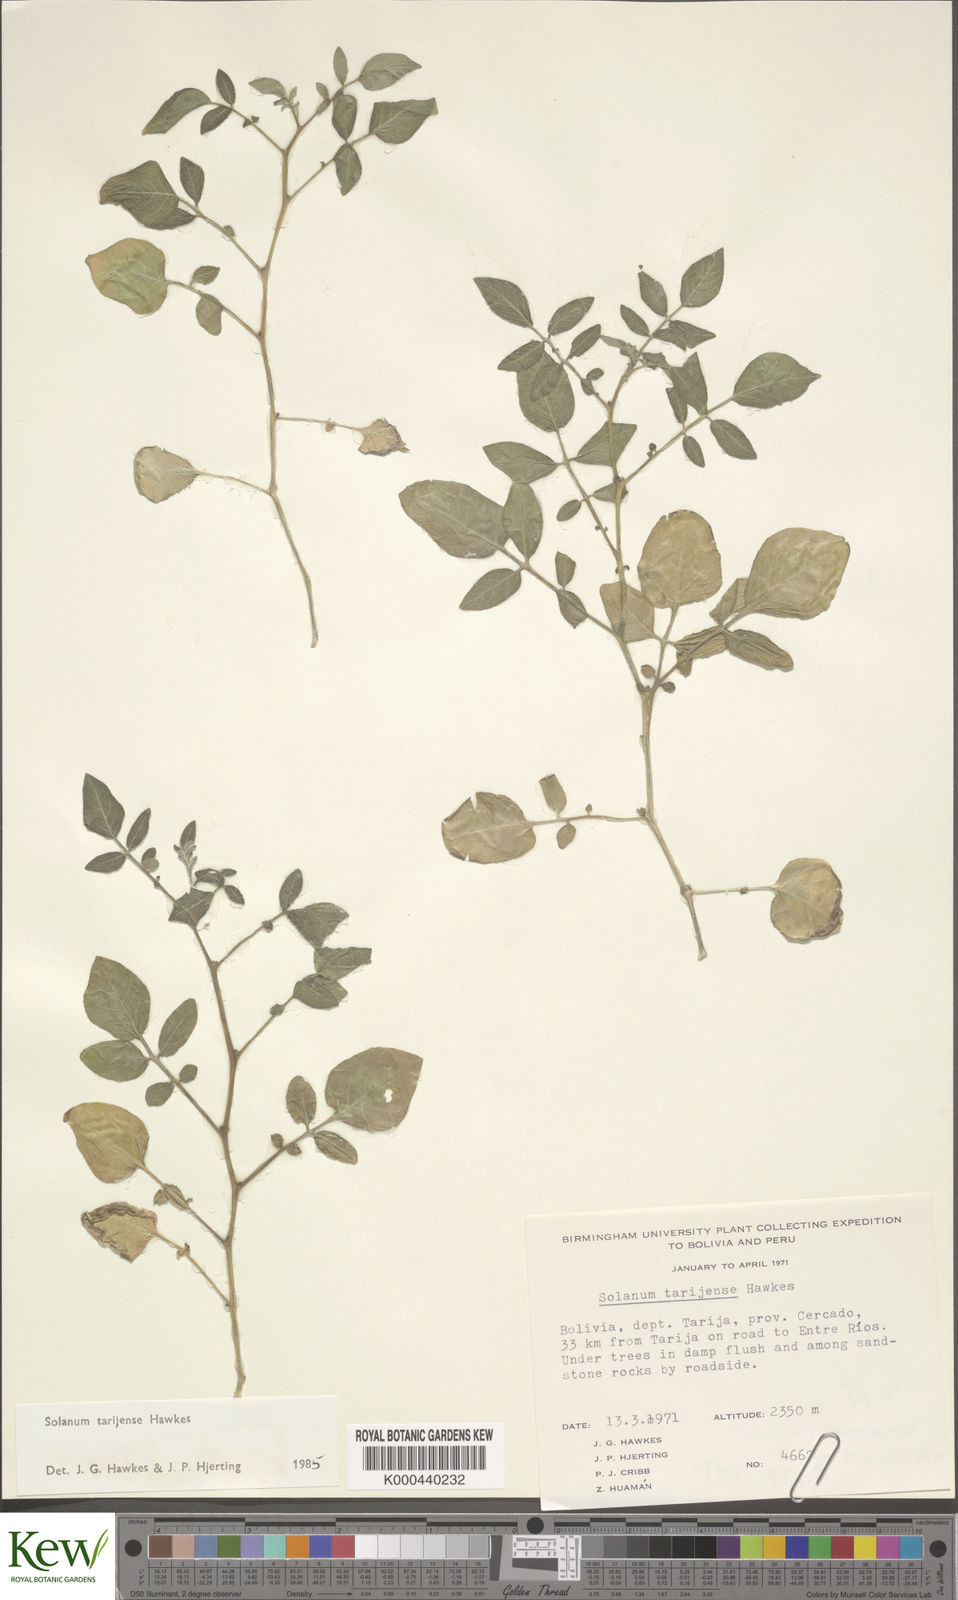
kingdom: Plantae
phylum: Tracheophyta
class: Magnoliopsida
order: Solanales
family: Solanaceae
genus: Solanum
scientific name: Solanum tarijense
